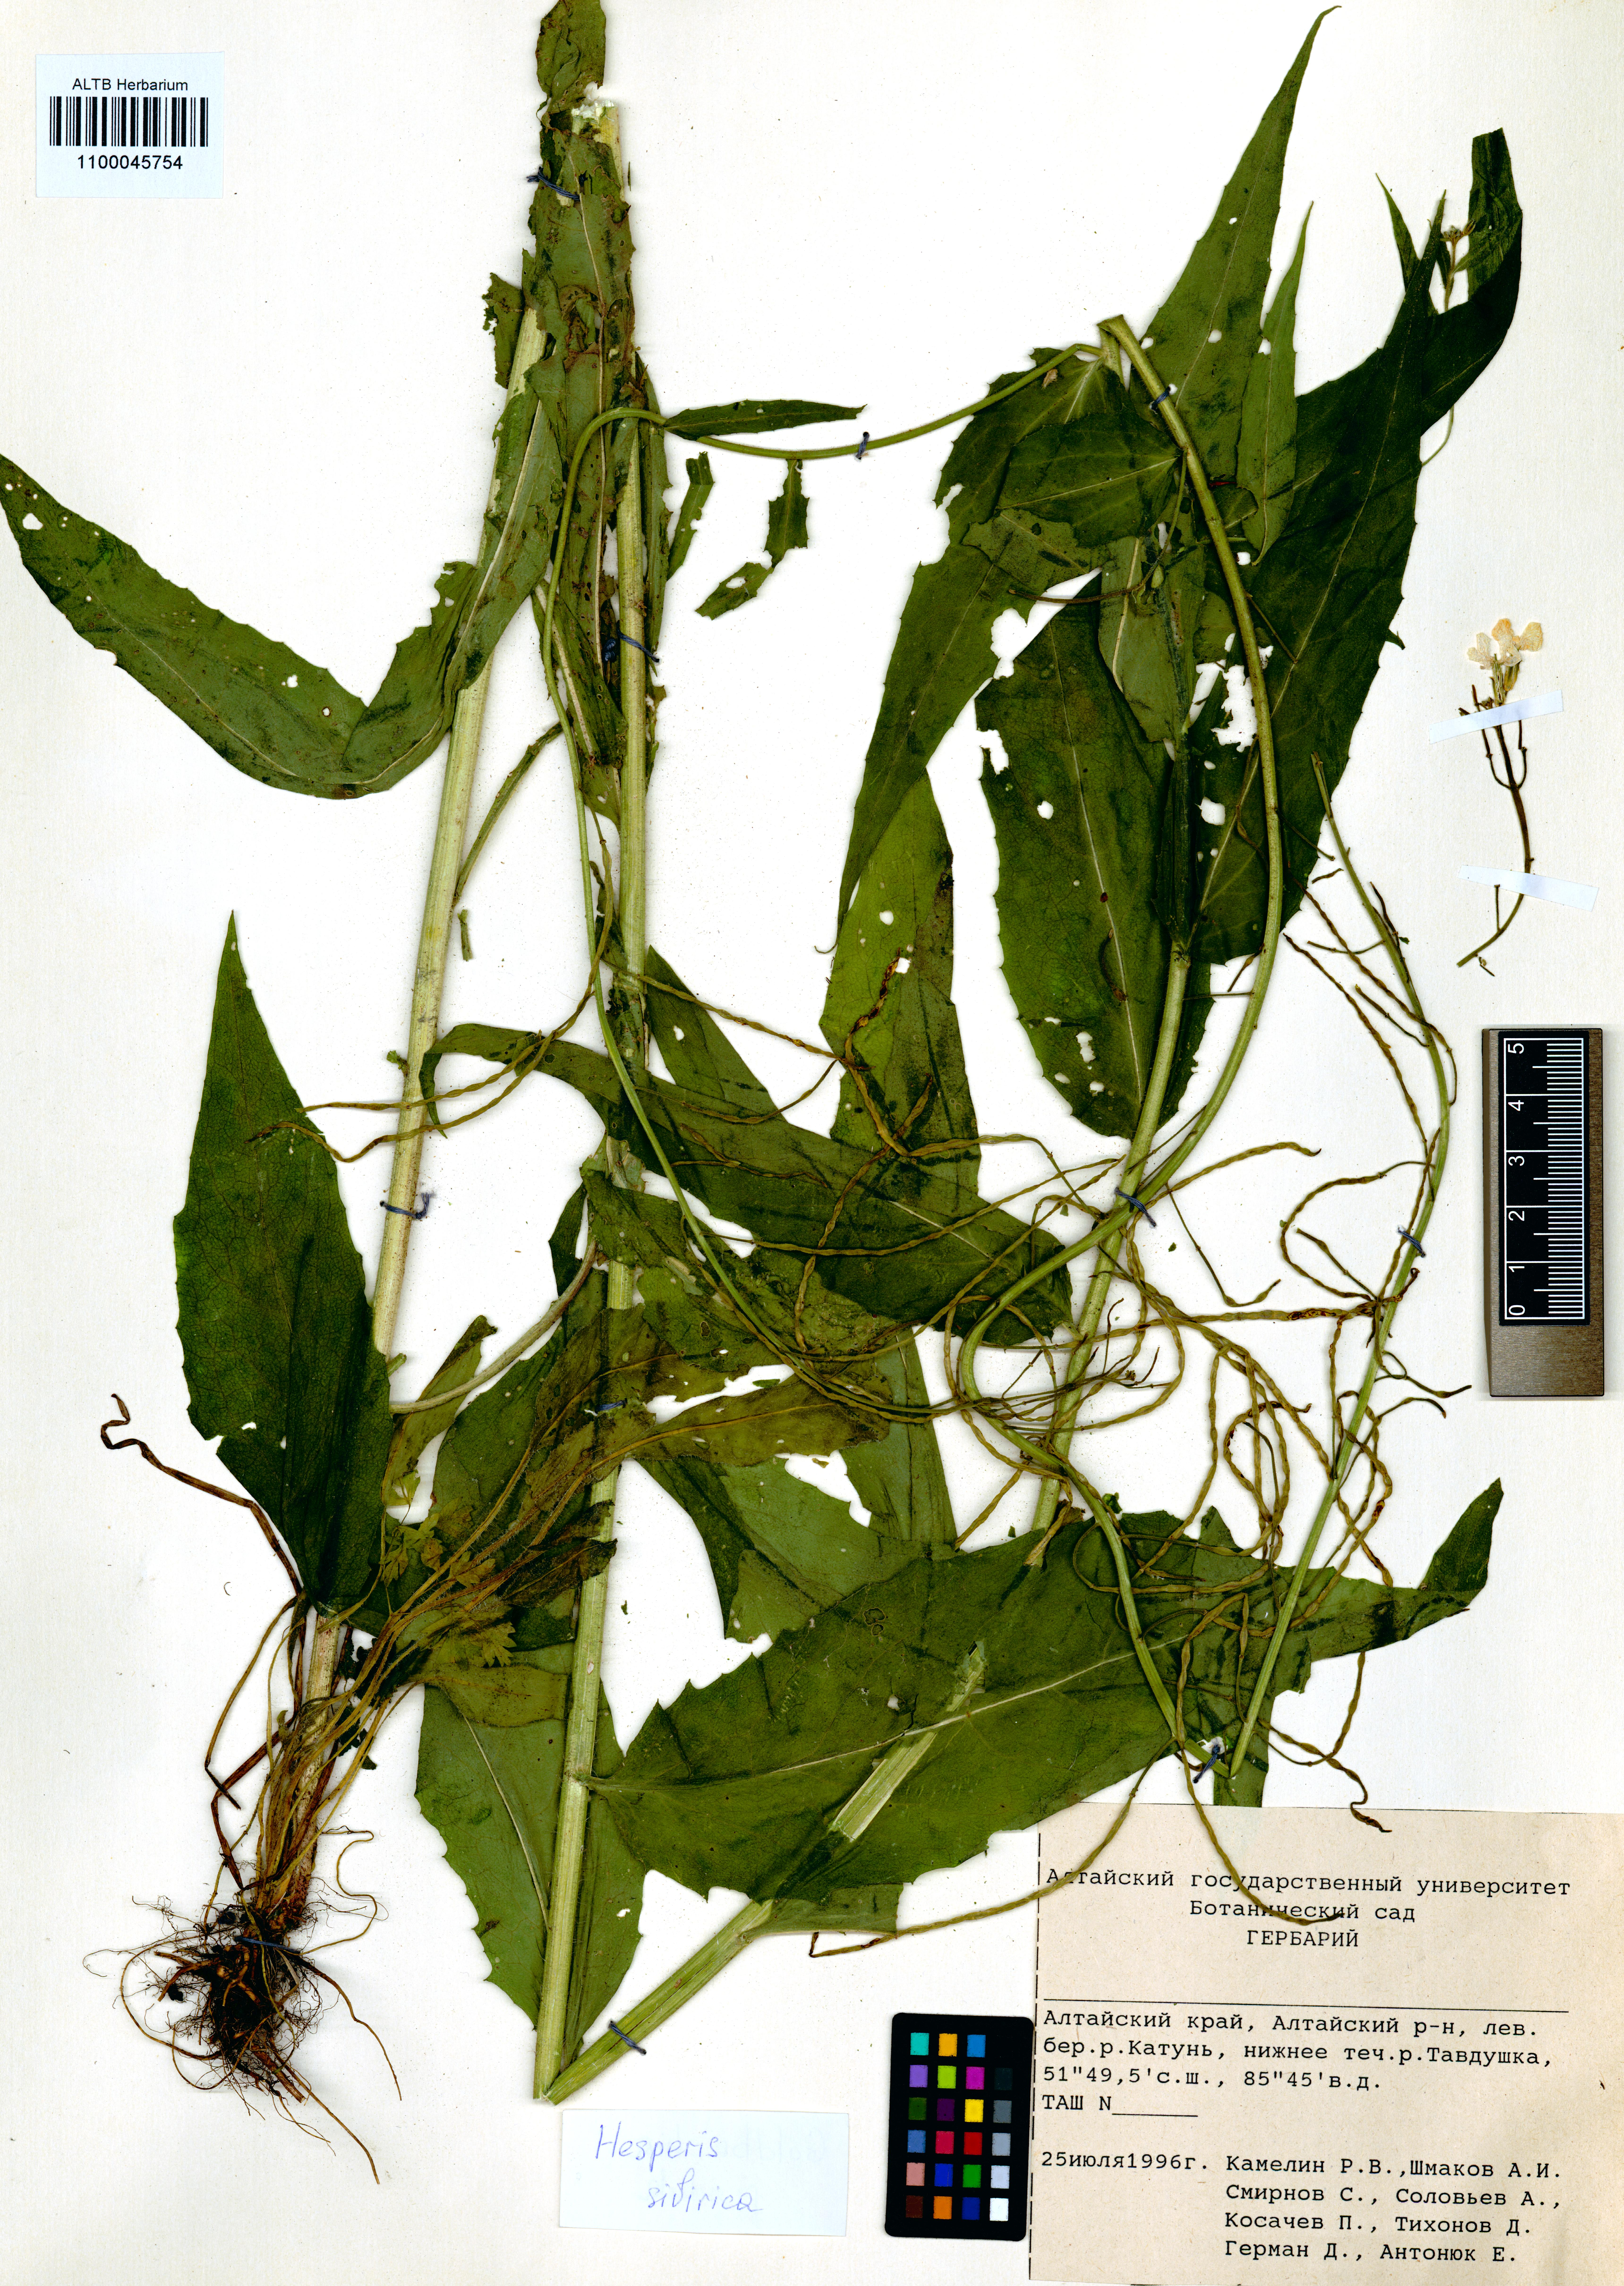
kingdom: Plantae
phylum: Tracheophyta
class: Magnoliopsida
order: Brassicales
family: Brassicaceae
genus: Hesperis
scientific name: Hesperis sibirica
